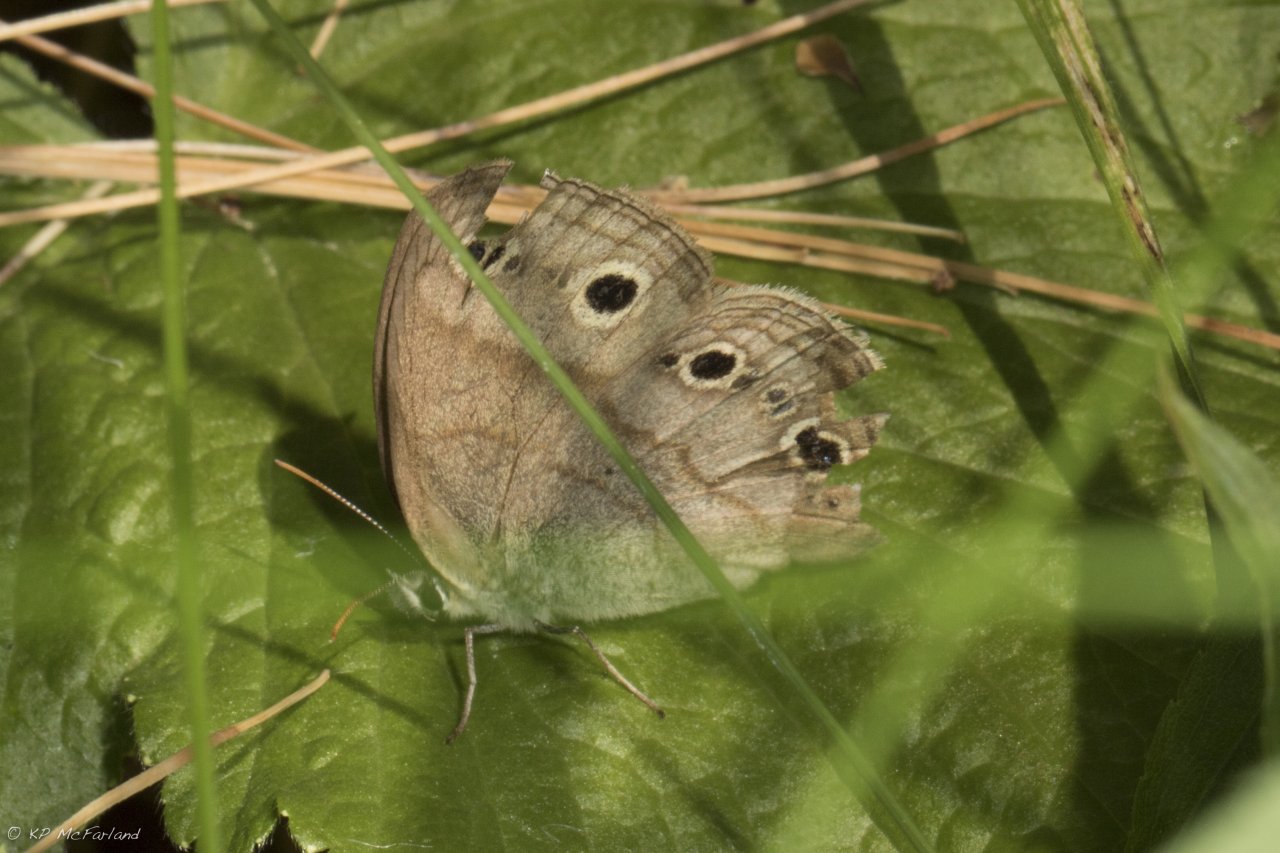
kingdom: Animalia
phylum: Arthropoda
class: Insecta
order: Lepidoptera
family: Nymphalidae
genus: Euptychia
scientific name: Euptychia cymela
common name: Little Wood Satyr
